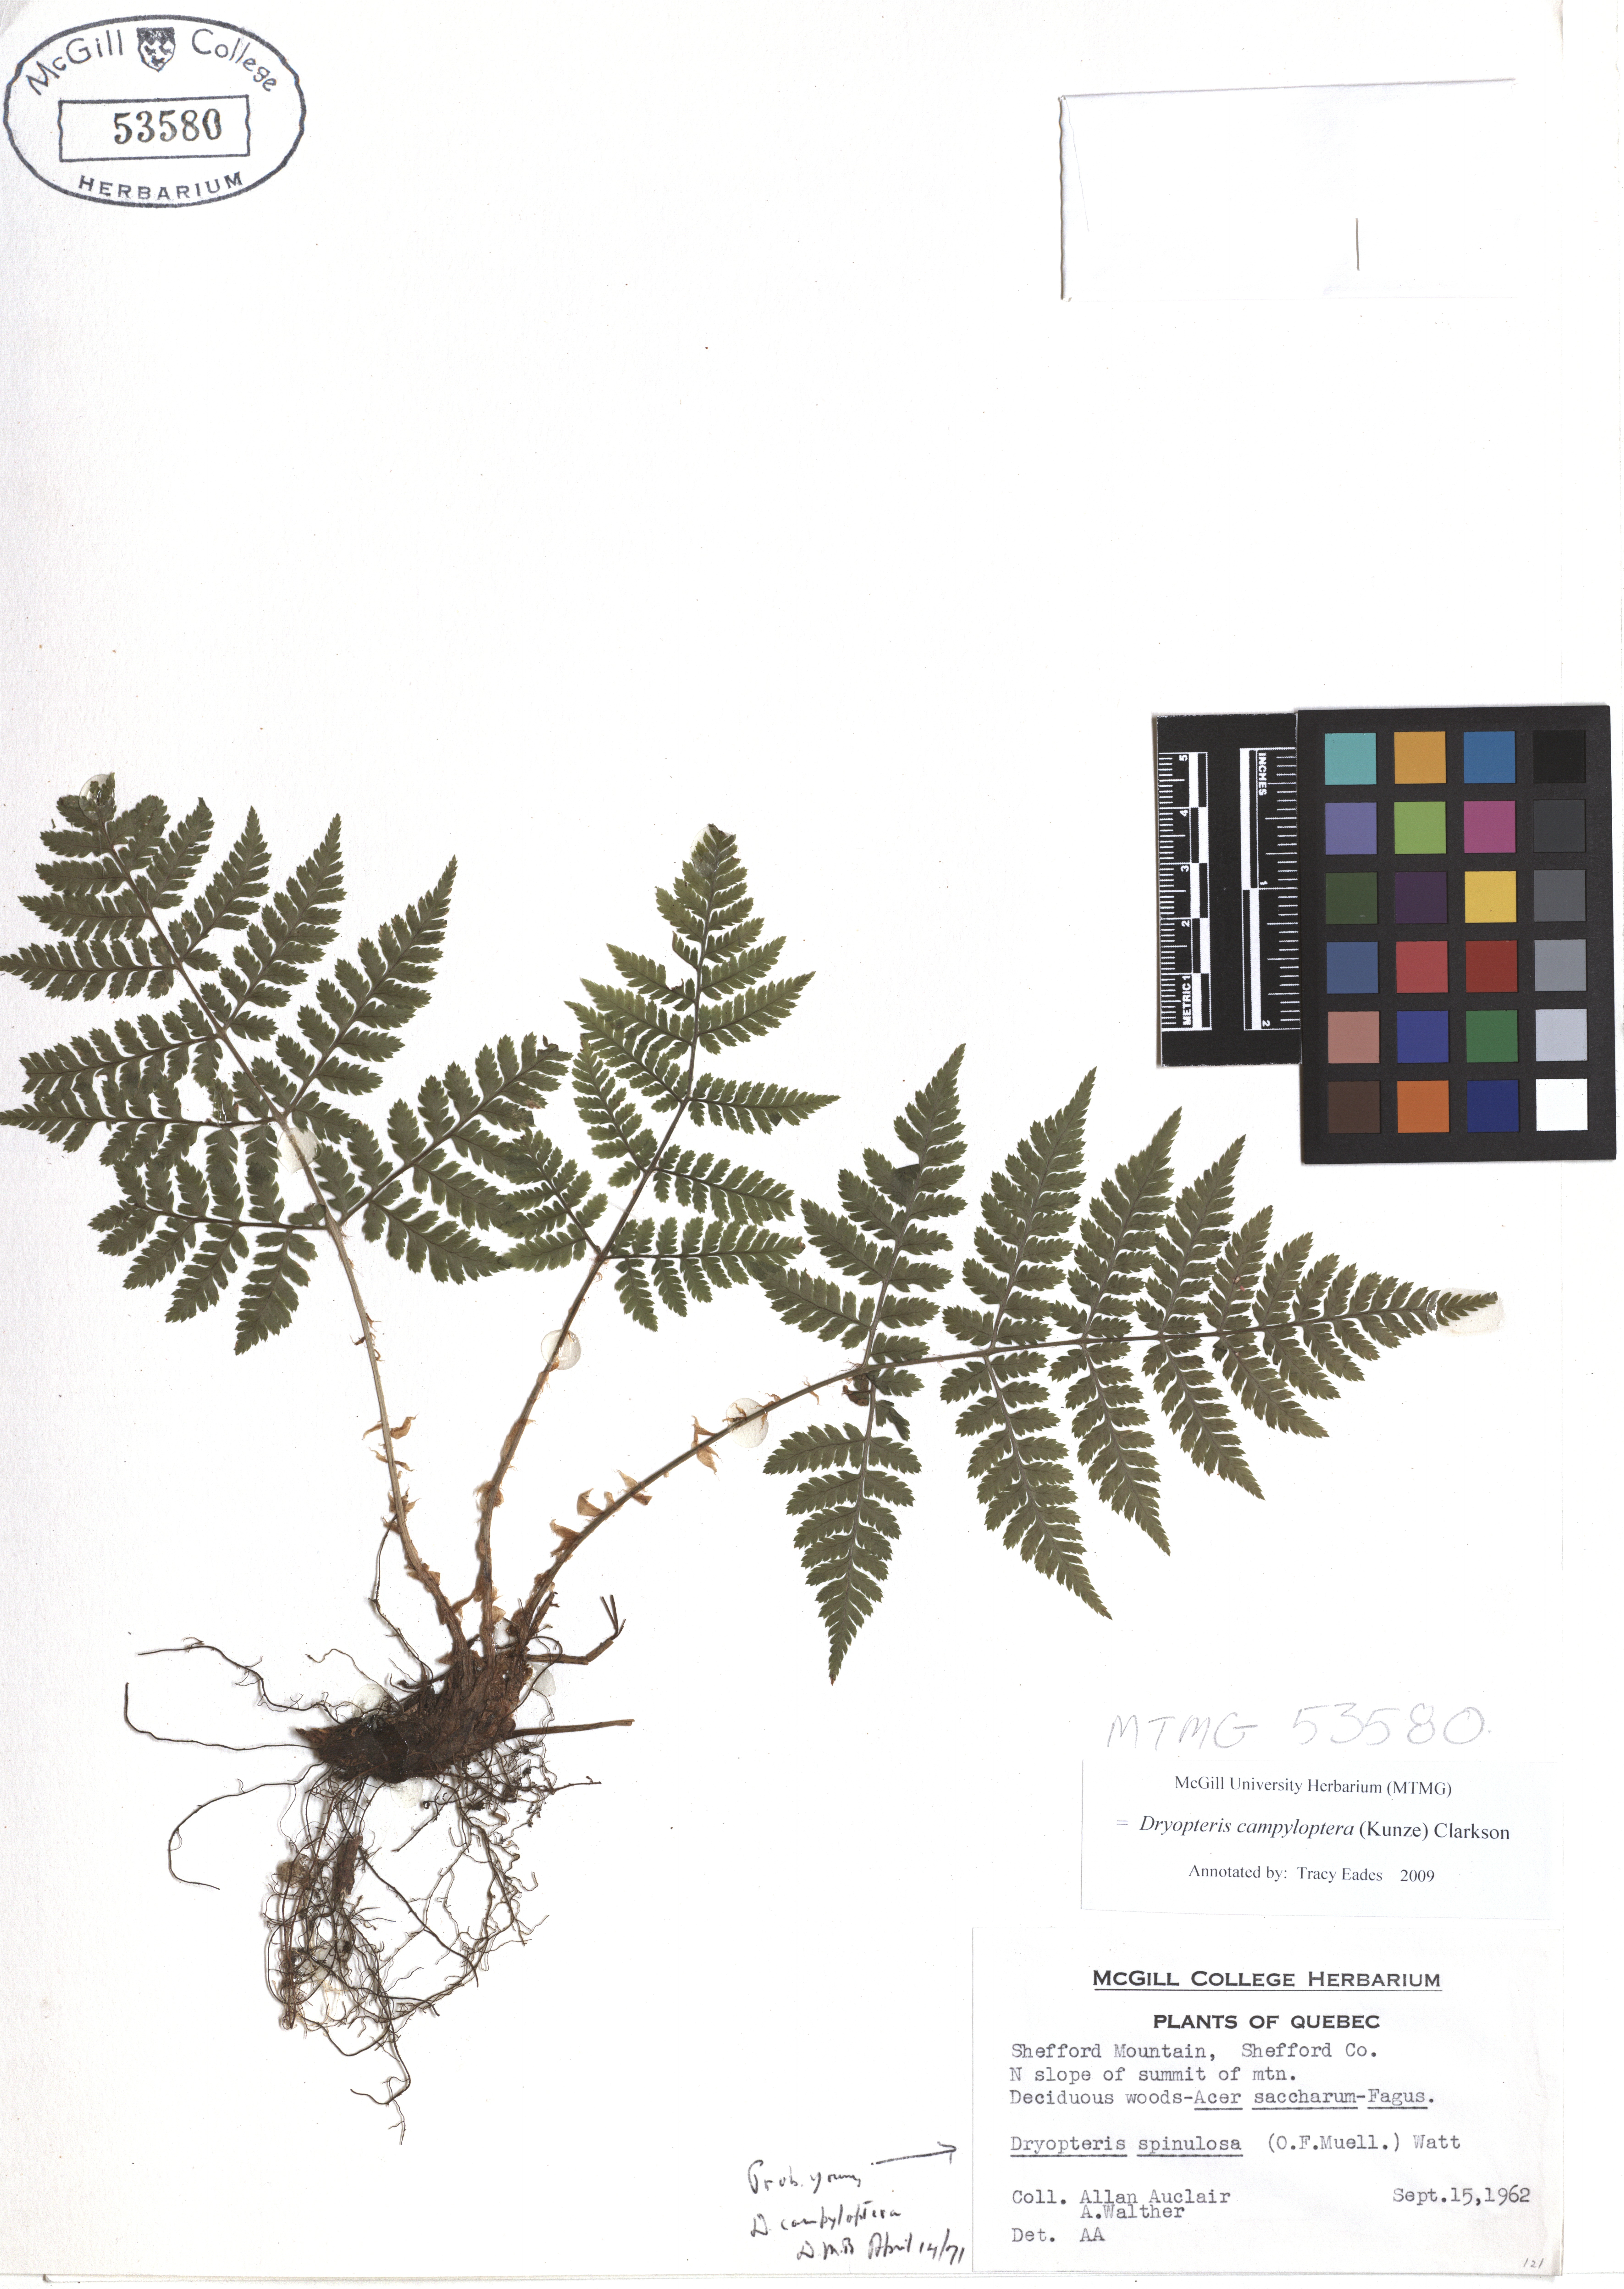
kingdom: Plantae
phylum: Tracheophyta
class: Polypodiopsida
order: Polypodiales
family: Dryopteridaceae
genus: Dryopteris
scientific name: Dryopteris campyloptera
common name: Mountain wood fern
